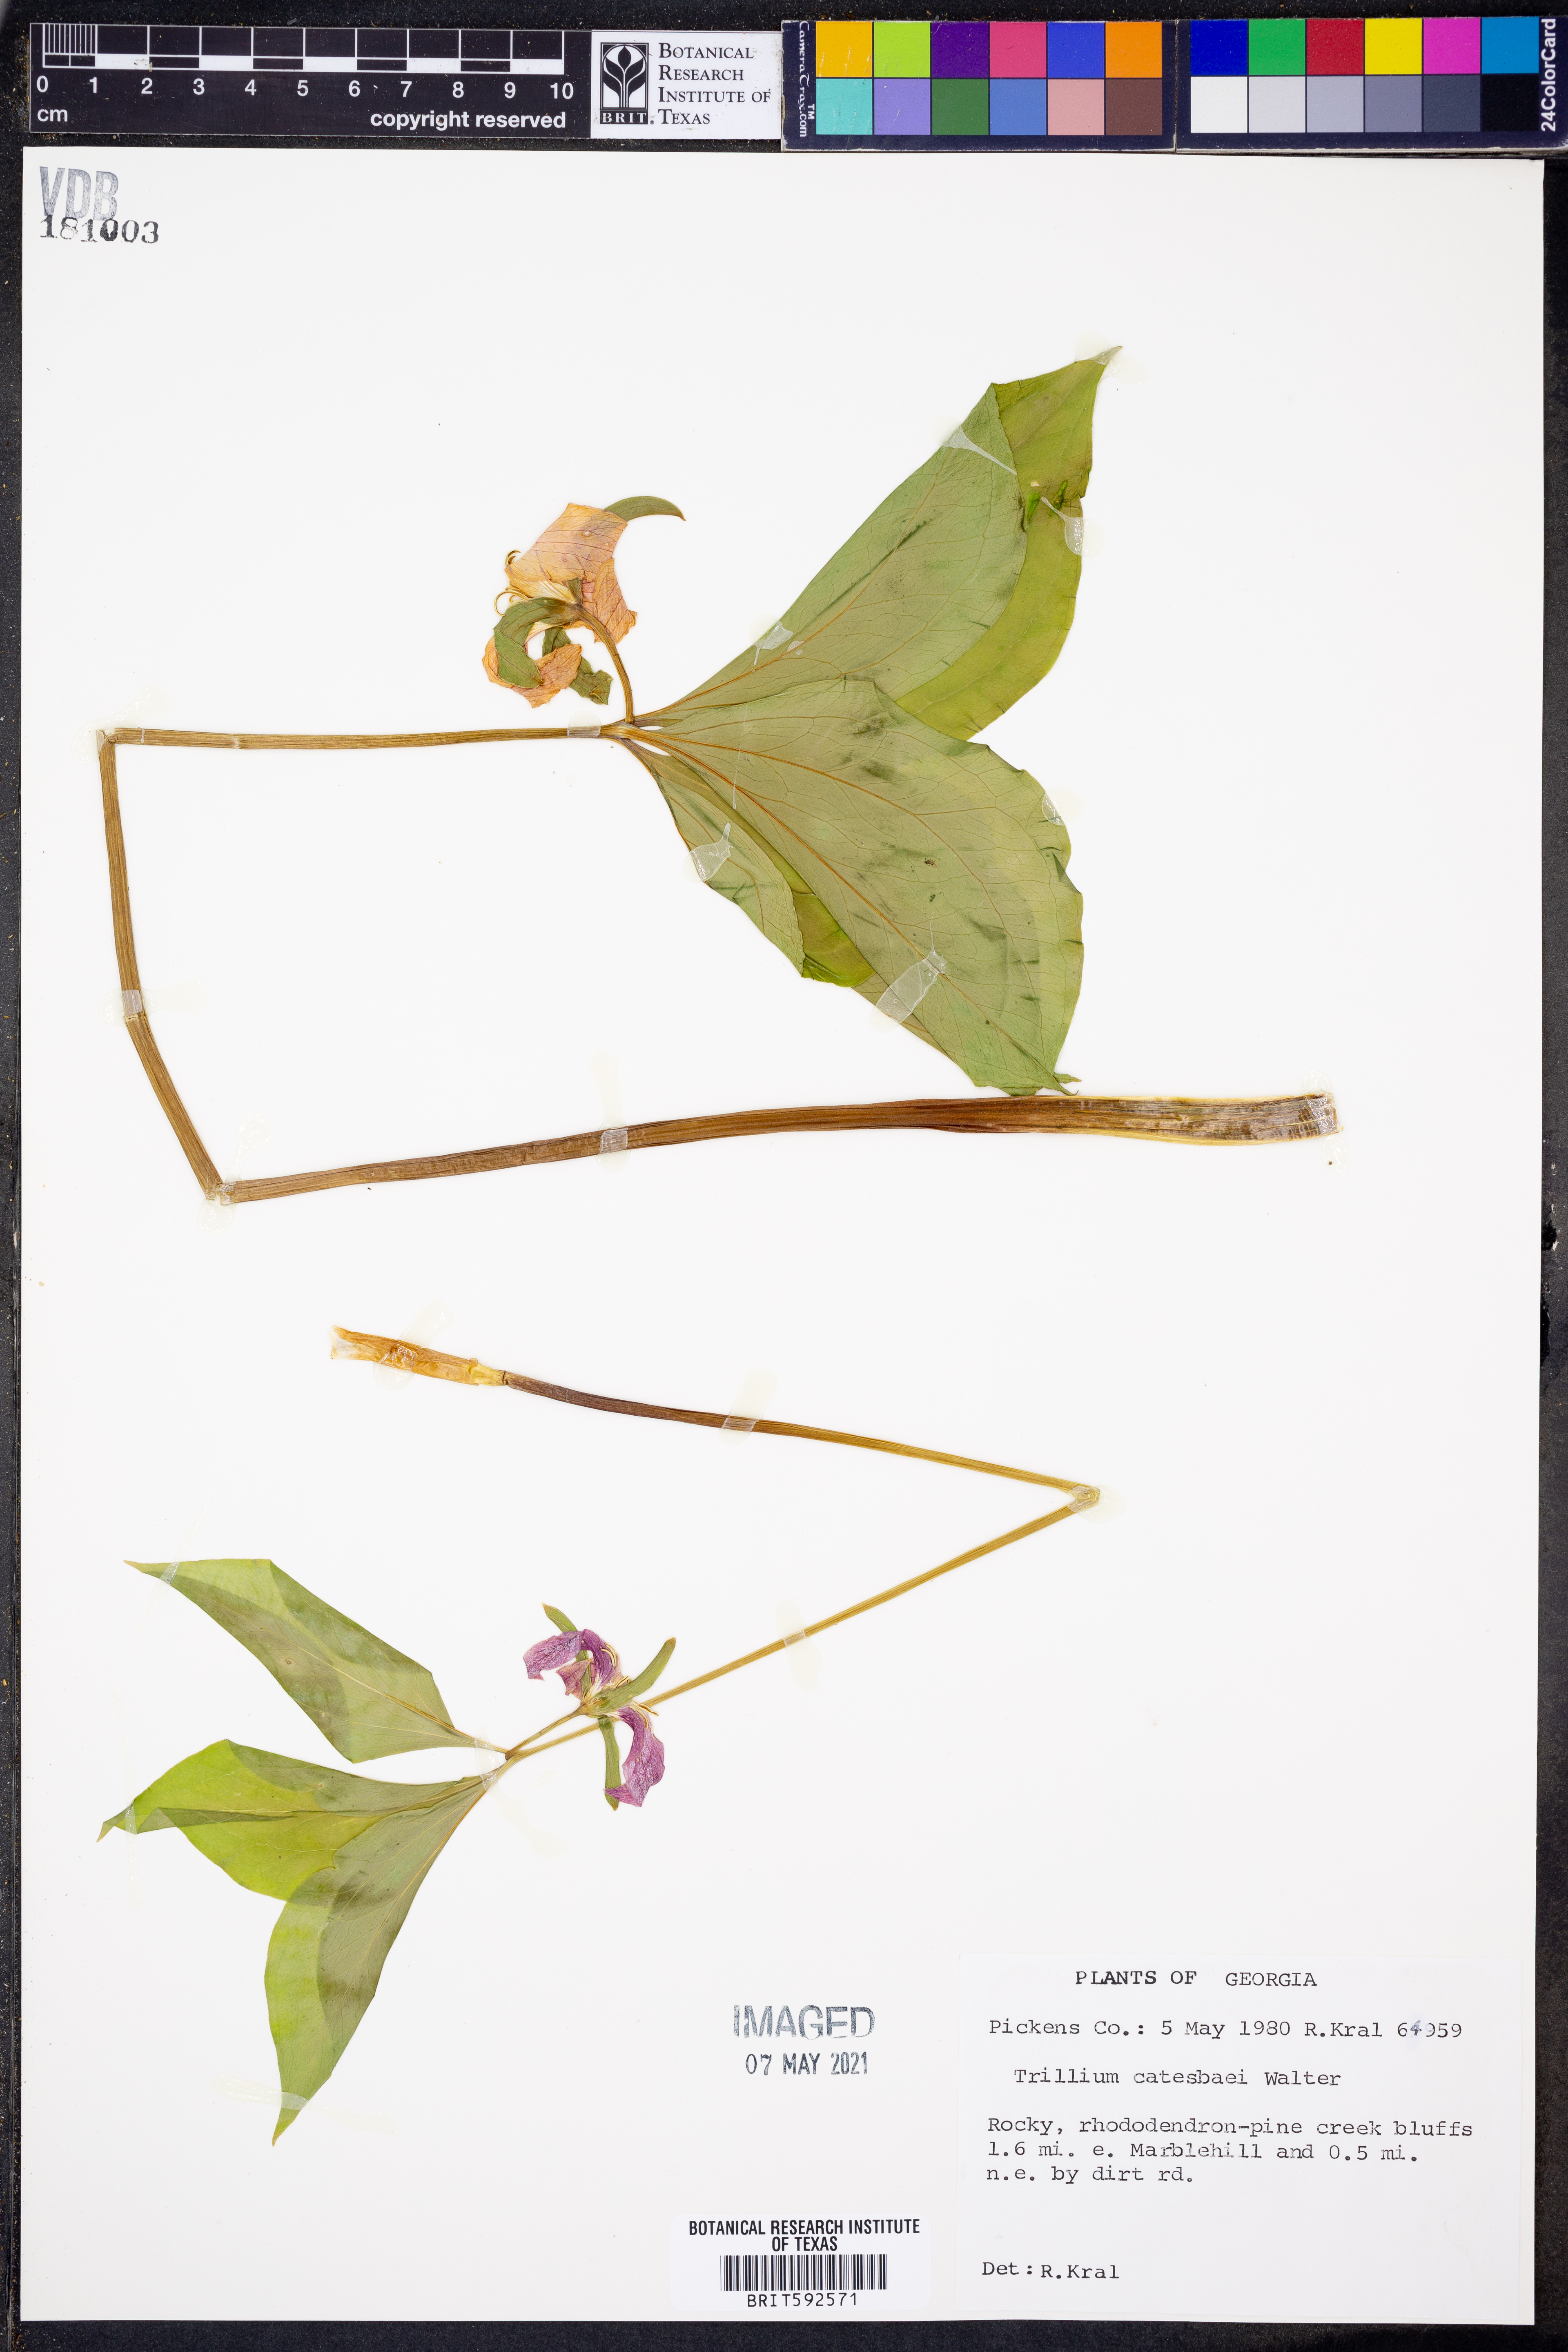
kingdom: Plantae
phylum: Tracheophyta
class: Liliopsida
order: Liliales
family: Melanthiaceae
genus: Trillium
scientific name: Trillium catesbaei
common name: Bashful trillium
